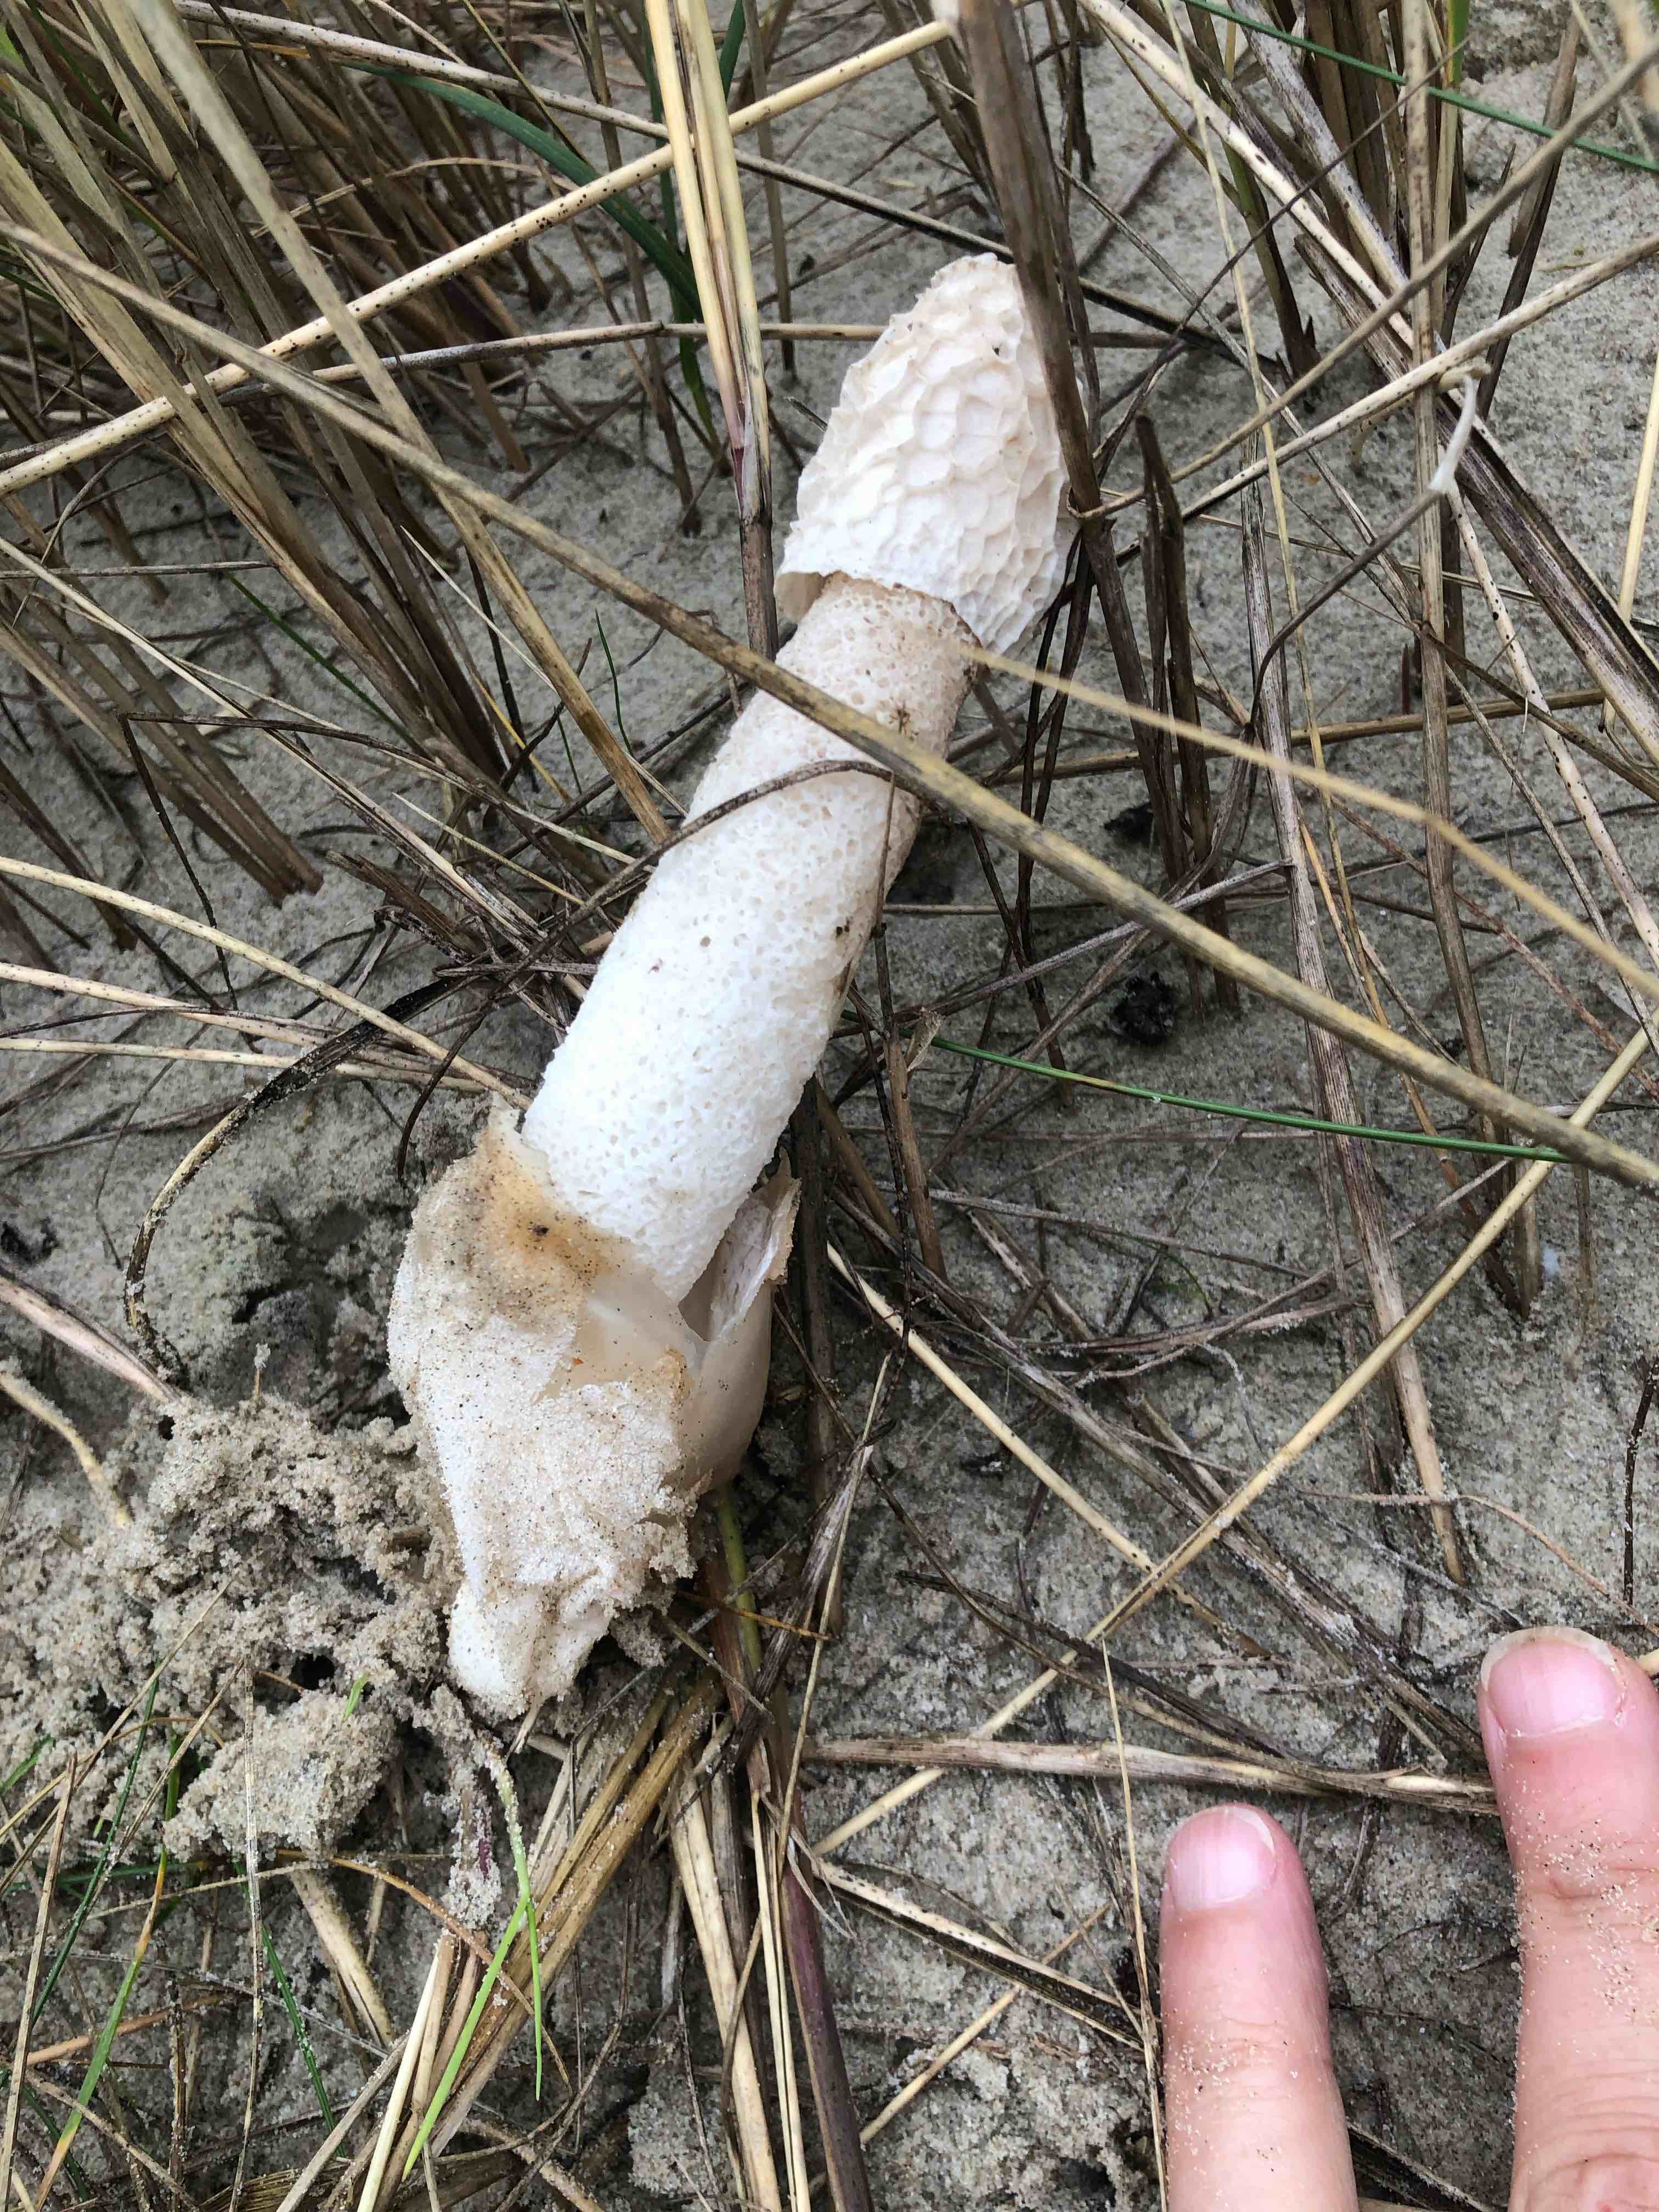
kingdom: Fungi
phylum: Basidiomycota
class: Agaricomycetes
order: Phallales
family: Phallaceae
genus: Phallus
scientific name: Phallus hadriani
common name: sand-stinksvamp
